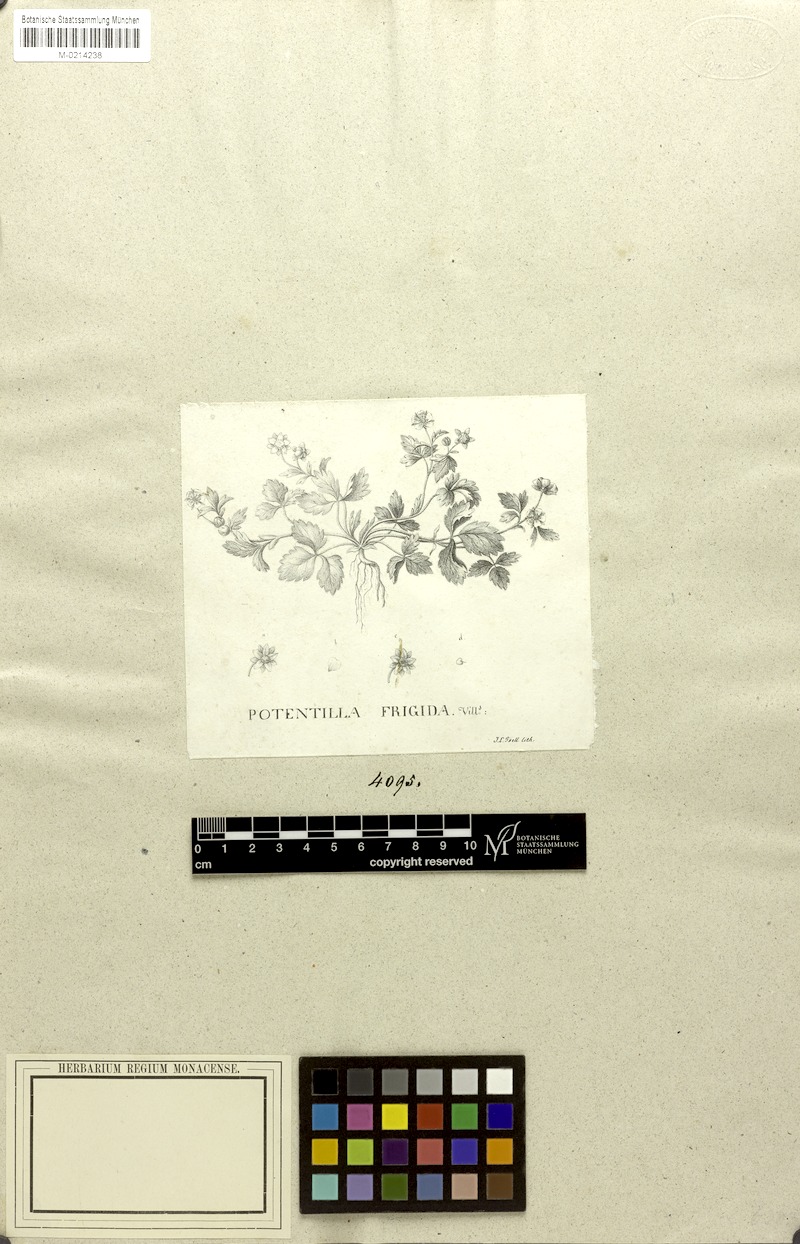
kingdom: Plantae
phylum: Tracheophyta
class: Magnoliopsida
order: Rosales
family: Rosaceae
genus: Potentilla
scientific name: Potentilla frigida
